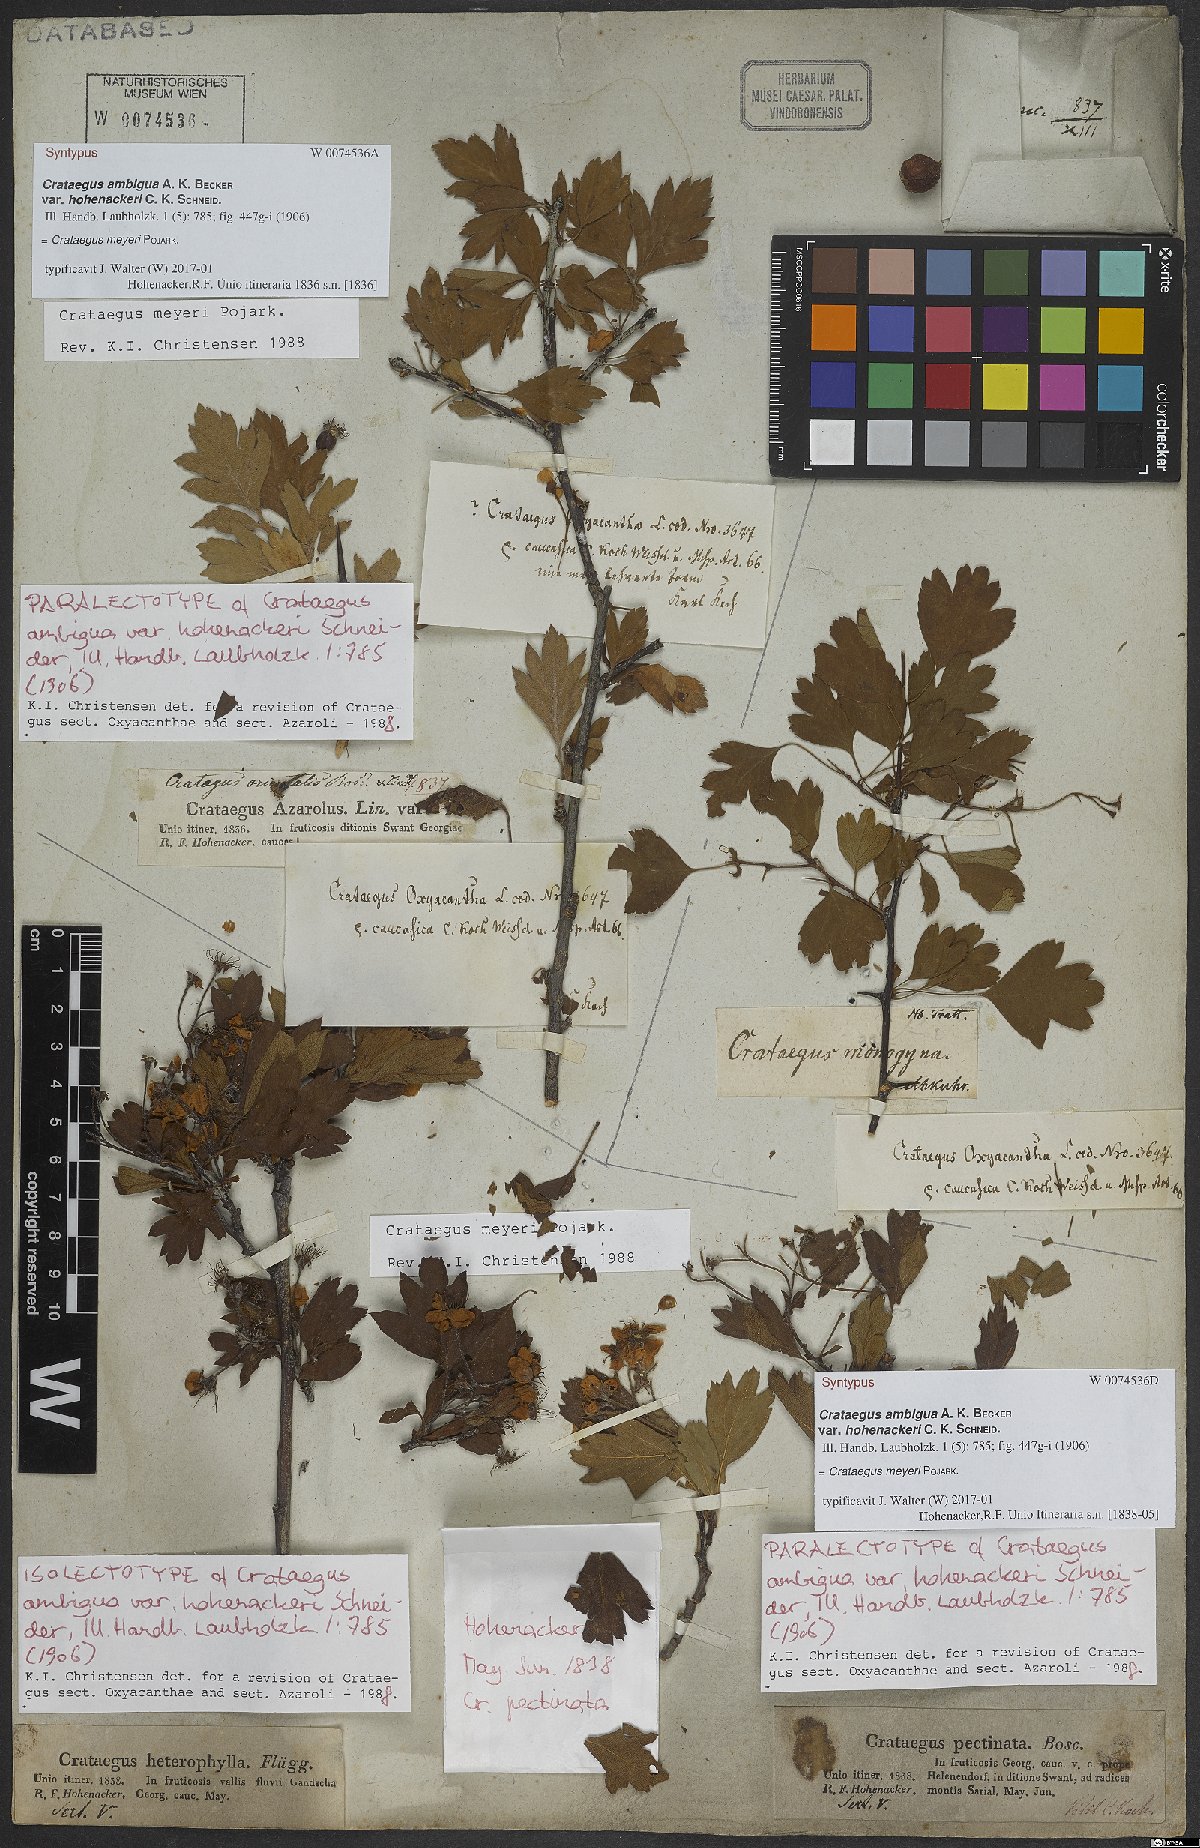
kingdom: Plantae
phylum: Tracheophyta
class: Magnoliopsida
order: Rosales
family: Rosaceae
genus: Crataegus
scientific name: Crataegus meyeri
